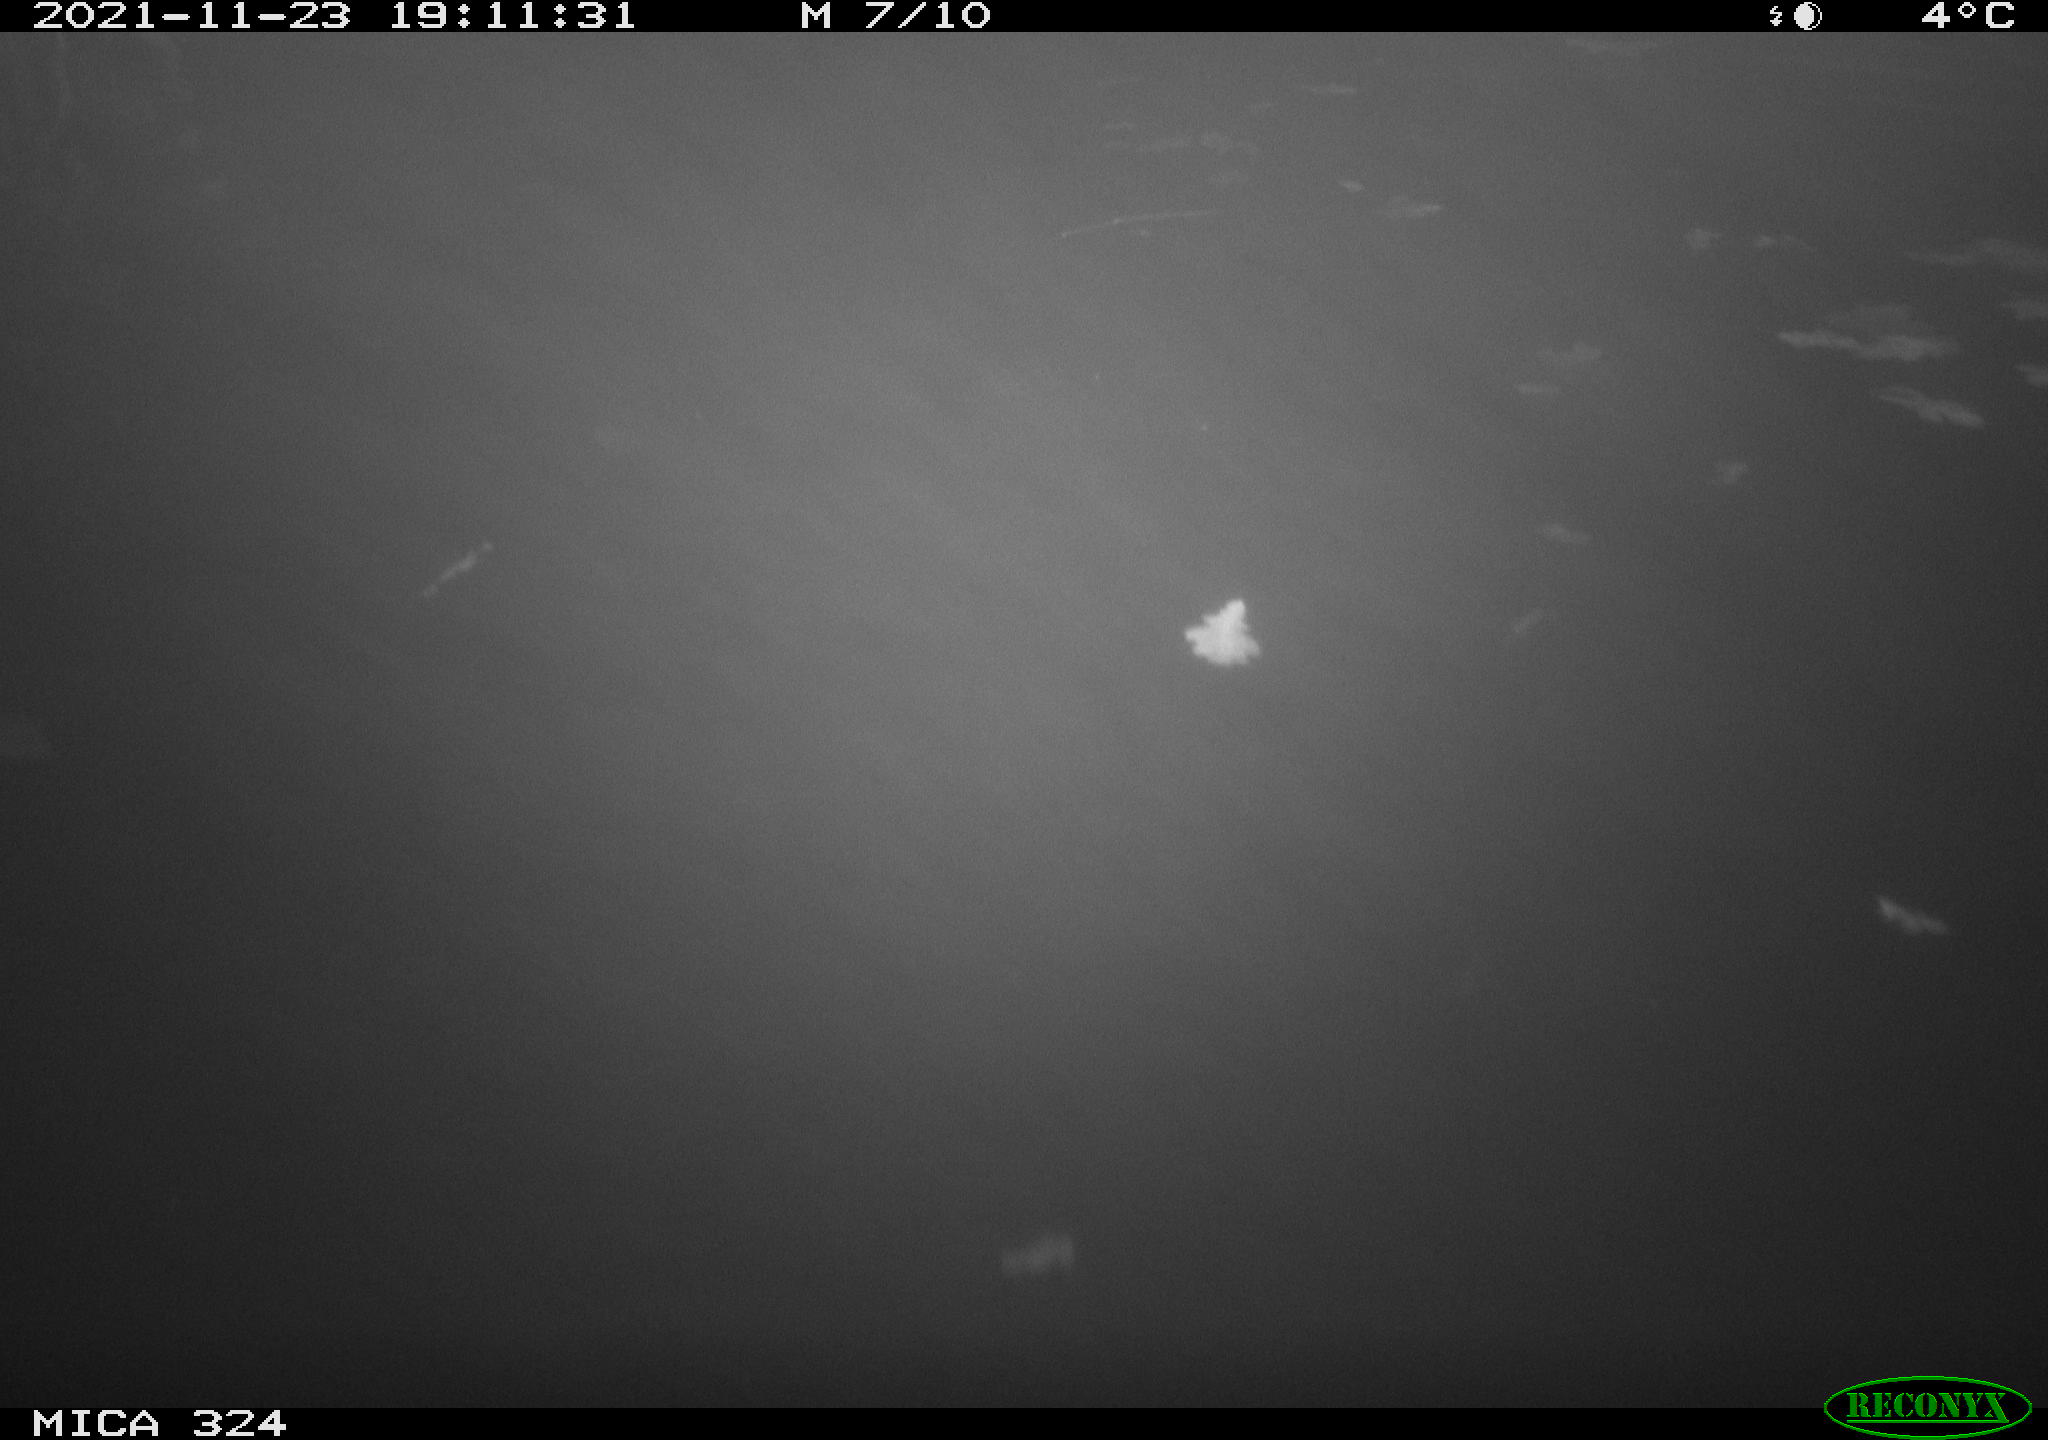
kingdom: Animalia
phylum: Chordata
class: Mammalia
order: Rodentia
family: Cricetidae
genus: Ondatra
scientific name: Ondatra zibethicus
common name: Muskrat
